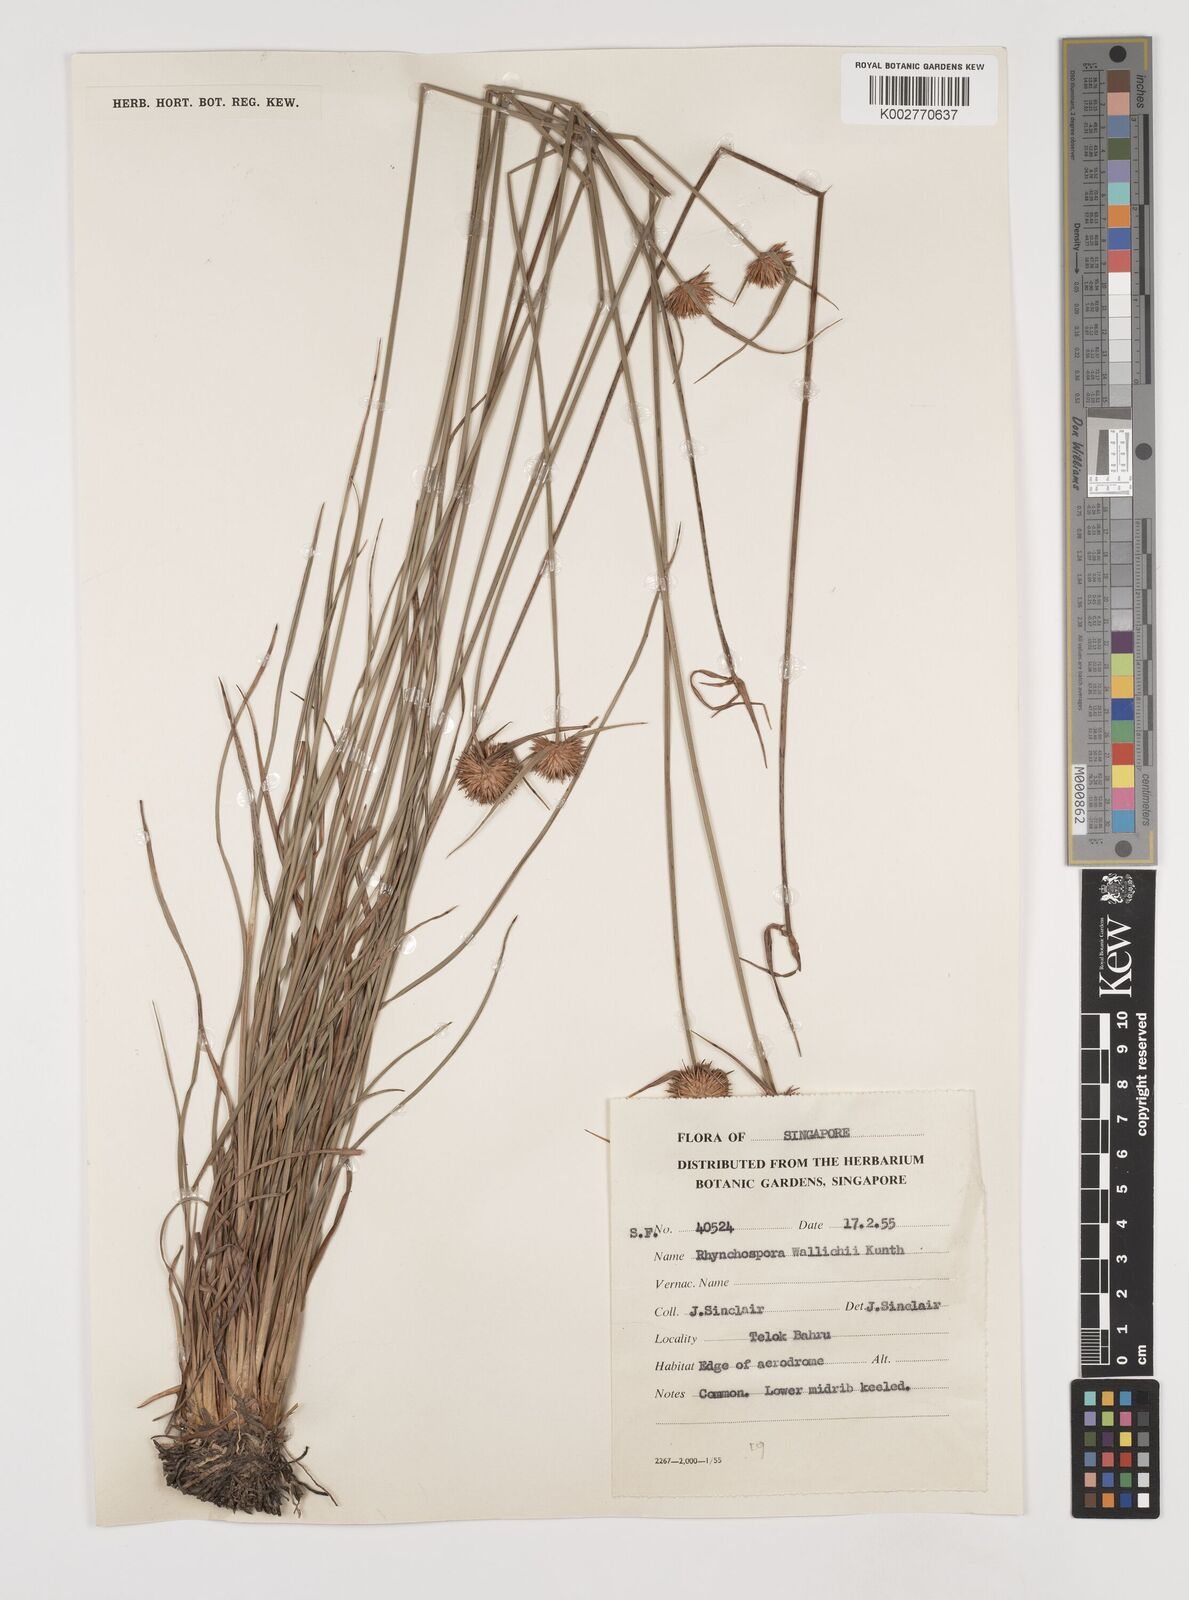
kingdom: Plantae
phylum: Tracheophyta
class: Liliopsida
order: Poales
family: Cyperaceae
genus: Rhynchospora
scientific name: Rhynchospora rubra
